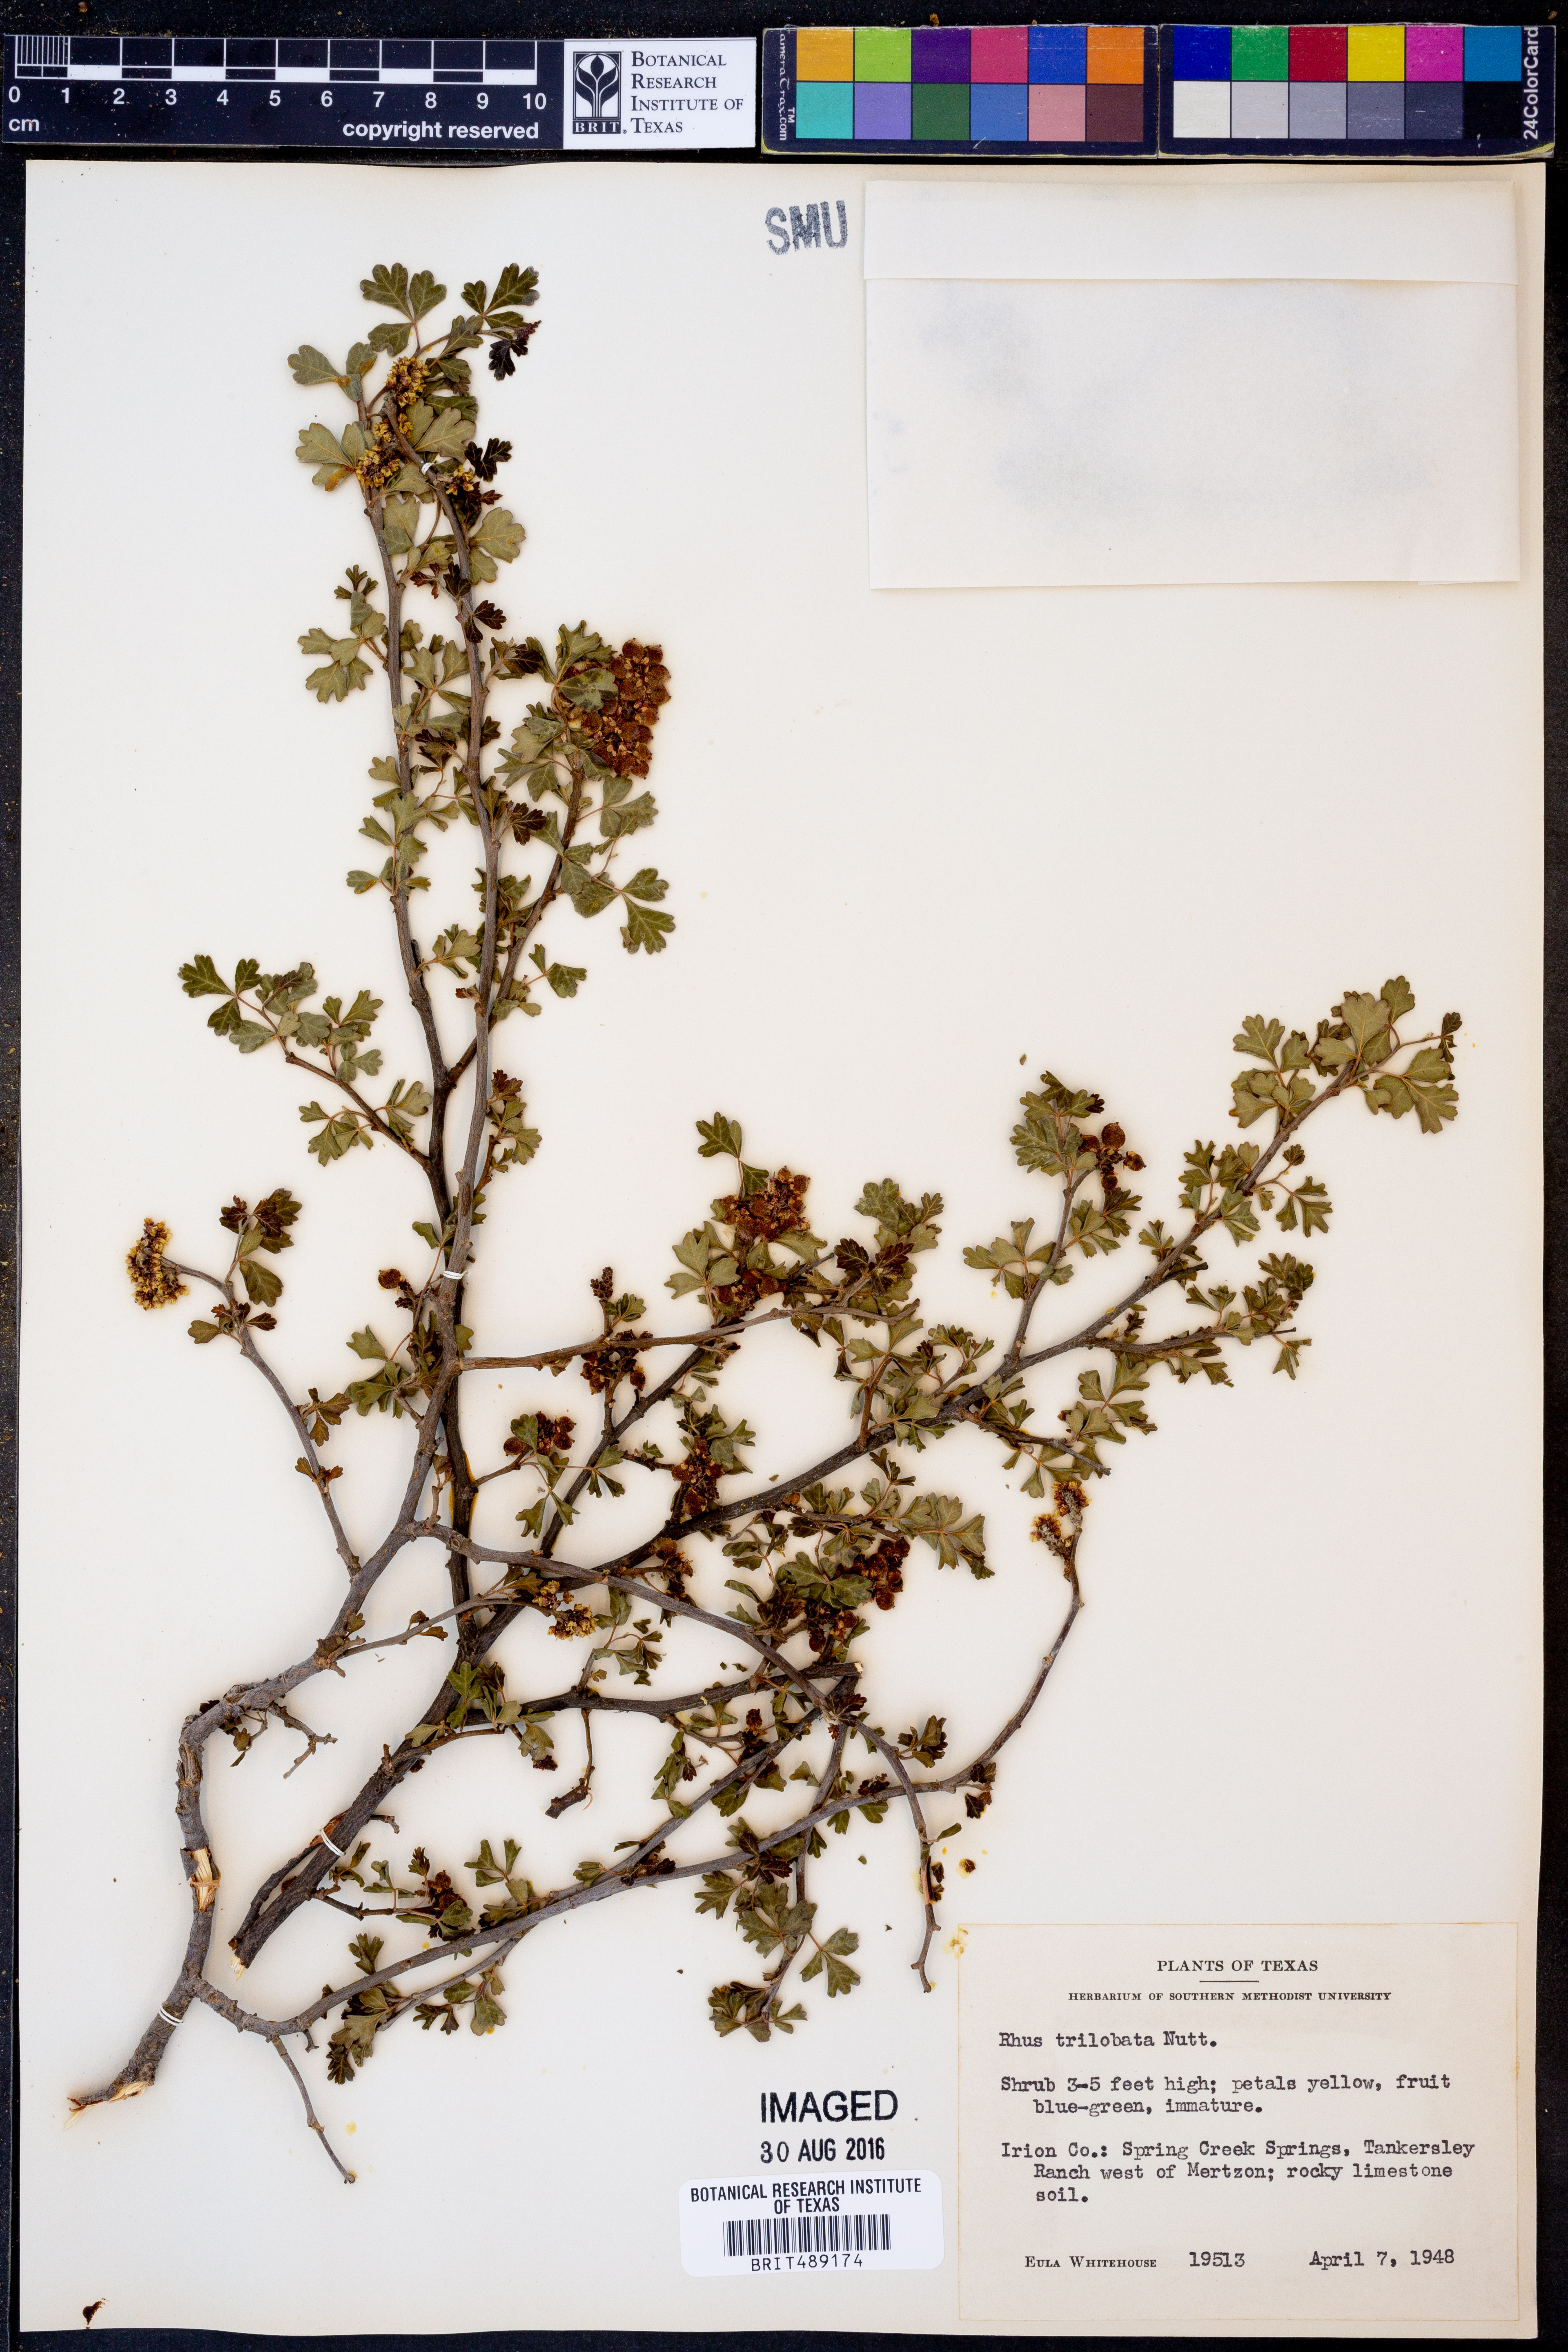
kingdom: Plantae
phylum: Tracheophyta
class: Magnoliopsida
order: Sapindales
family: Anacardiaceae
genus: Rhus
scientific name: Rhus trilobata
